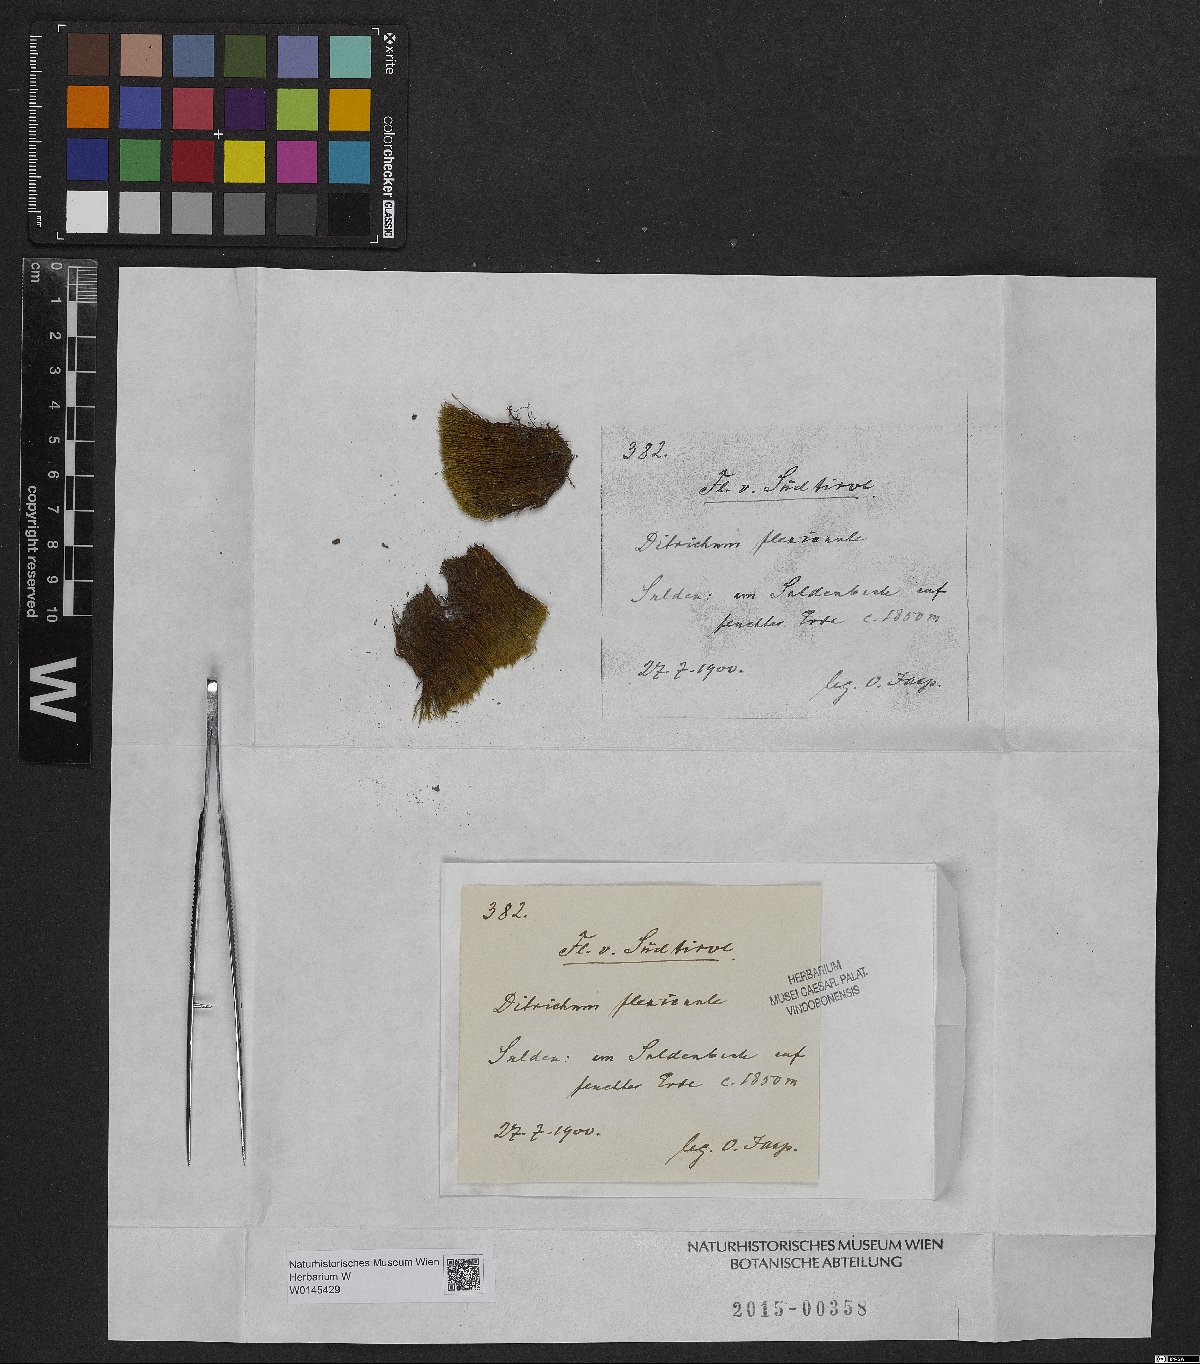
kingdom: Plantae
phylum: Bryophyta
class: Bryopsida
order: Scouleriales
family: Flexitrichaceae
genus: Flexitrichum
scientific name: Flexitrichum flexicaule
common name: Bendy ditrichum
